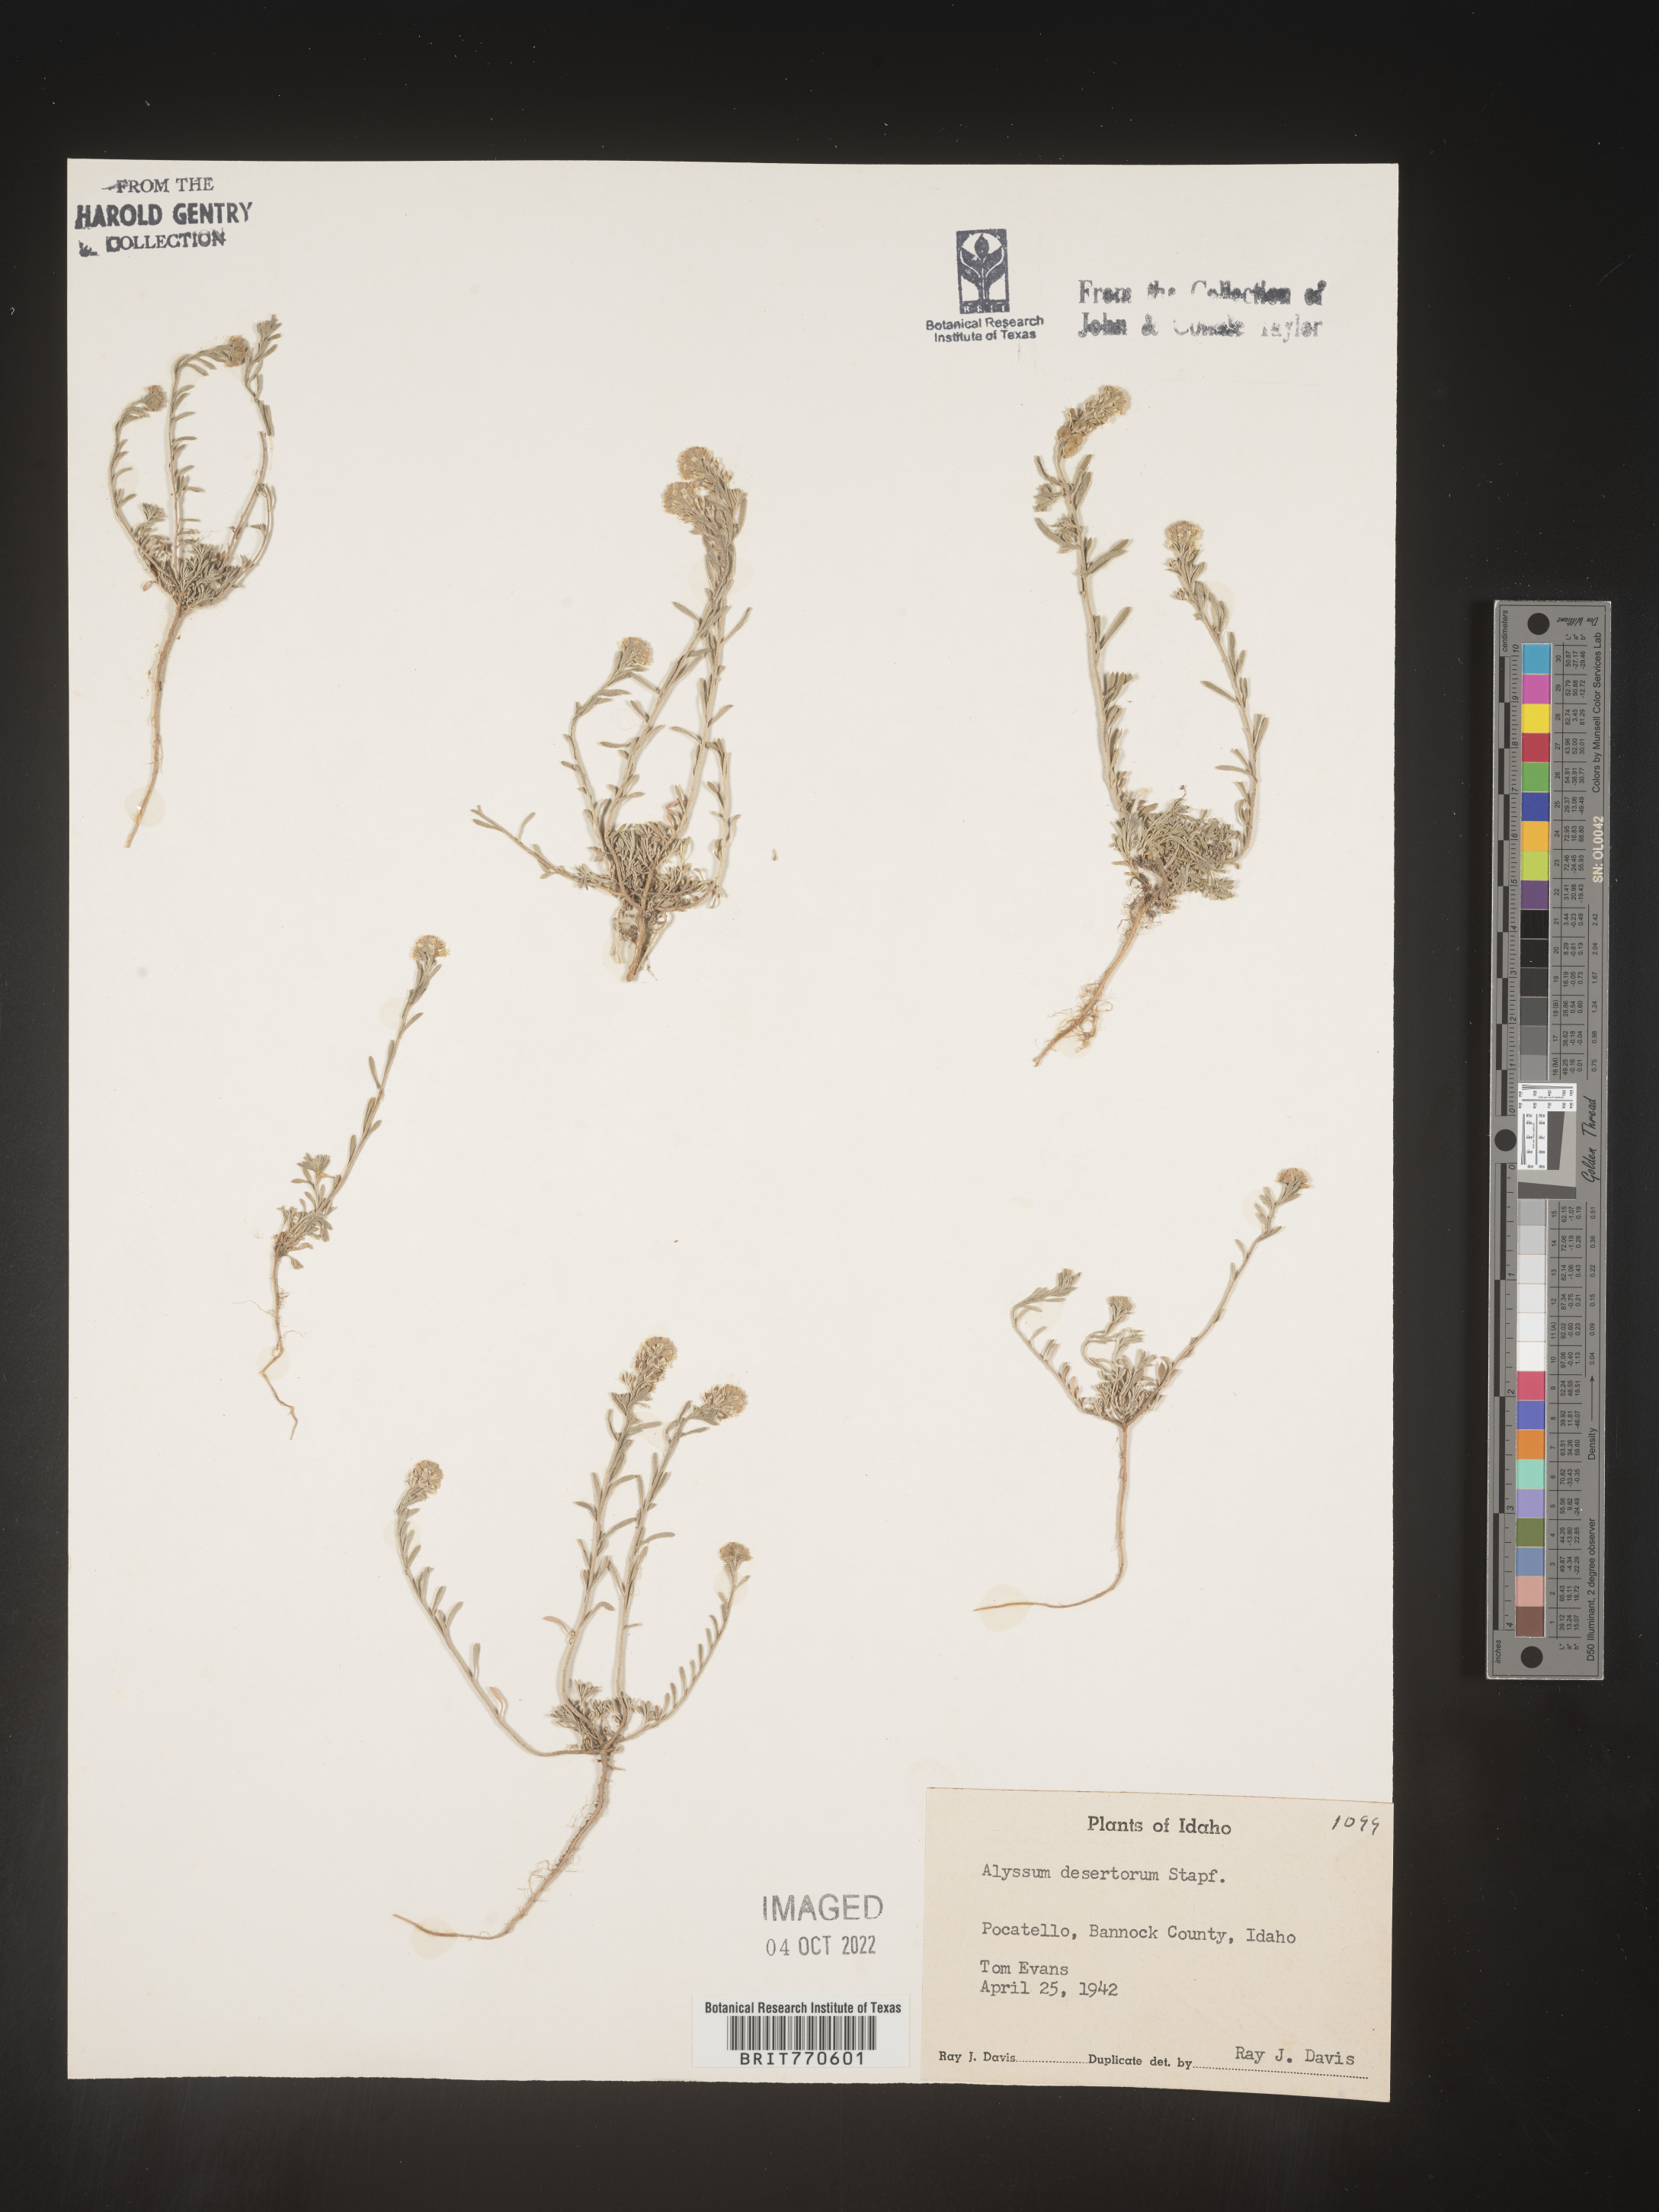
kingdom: Plantae
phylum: Tracheophyta
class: Magnoliopsida
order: Brassicales
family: Brassicaceae
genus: Alyssum
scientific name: Alyssum turkestanicum
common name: Desert alyssum
